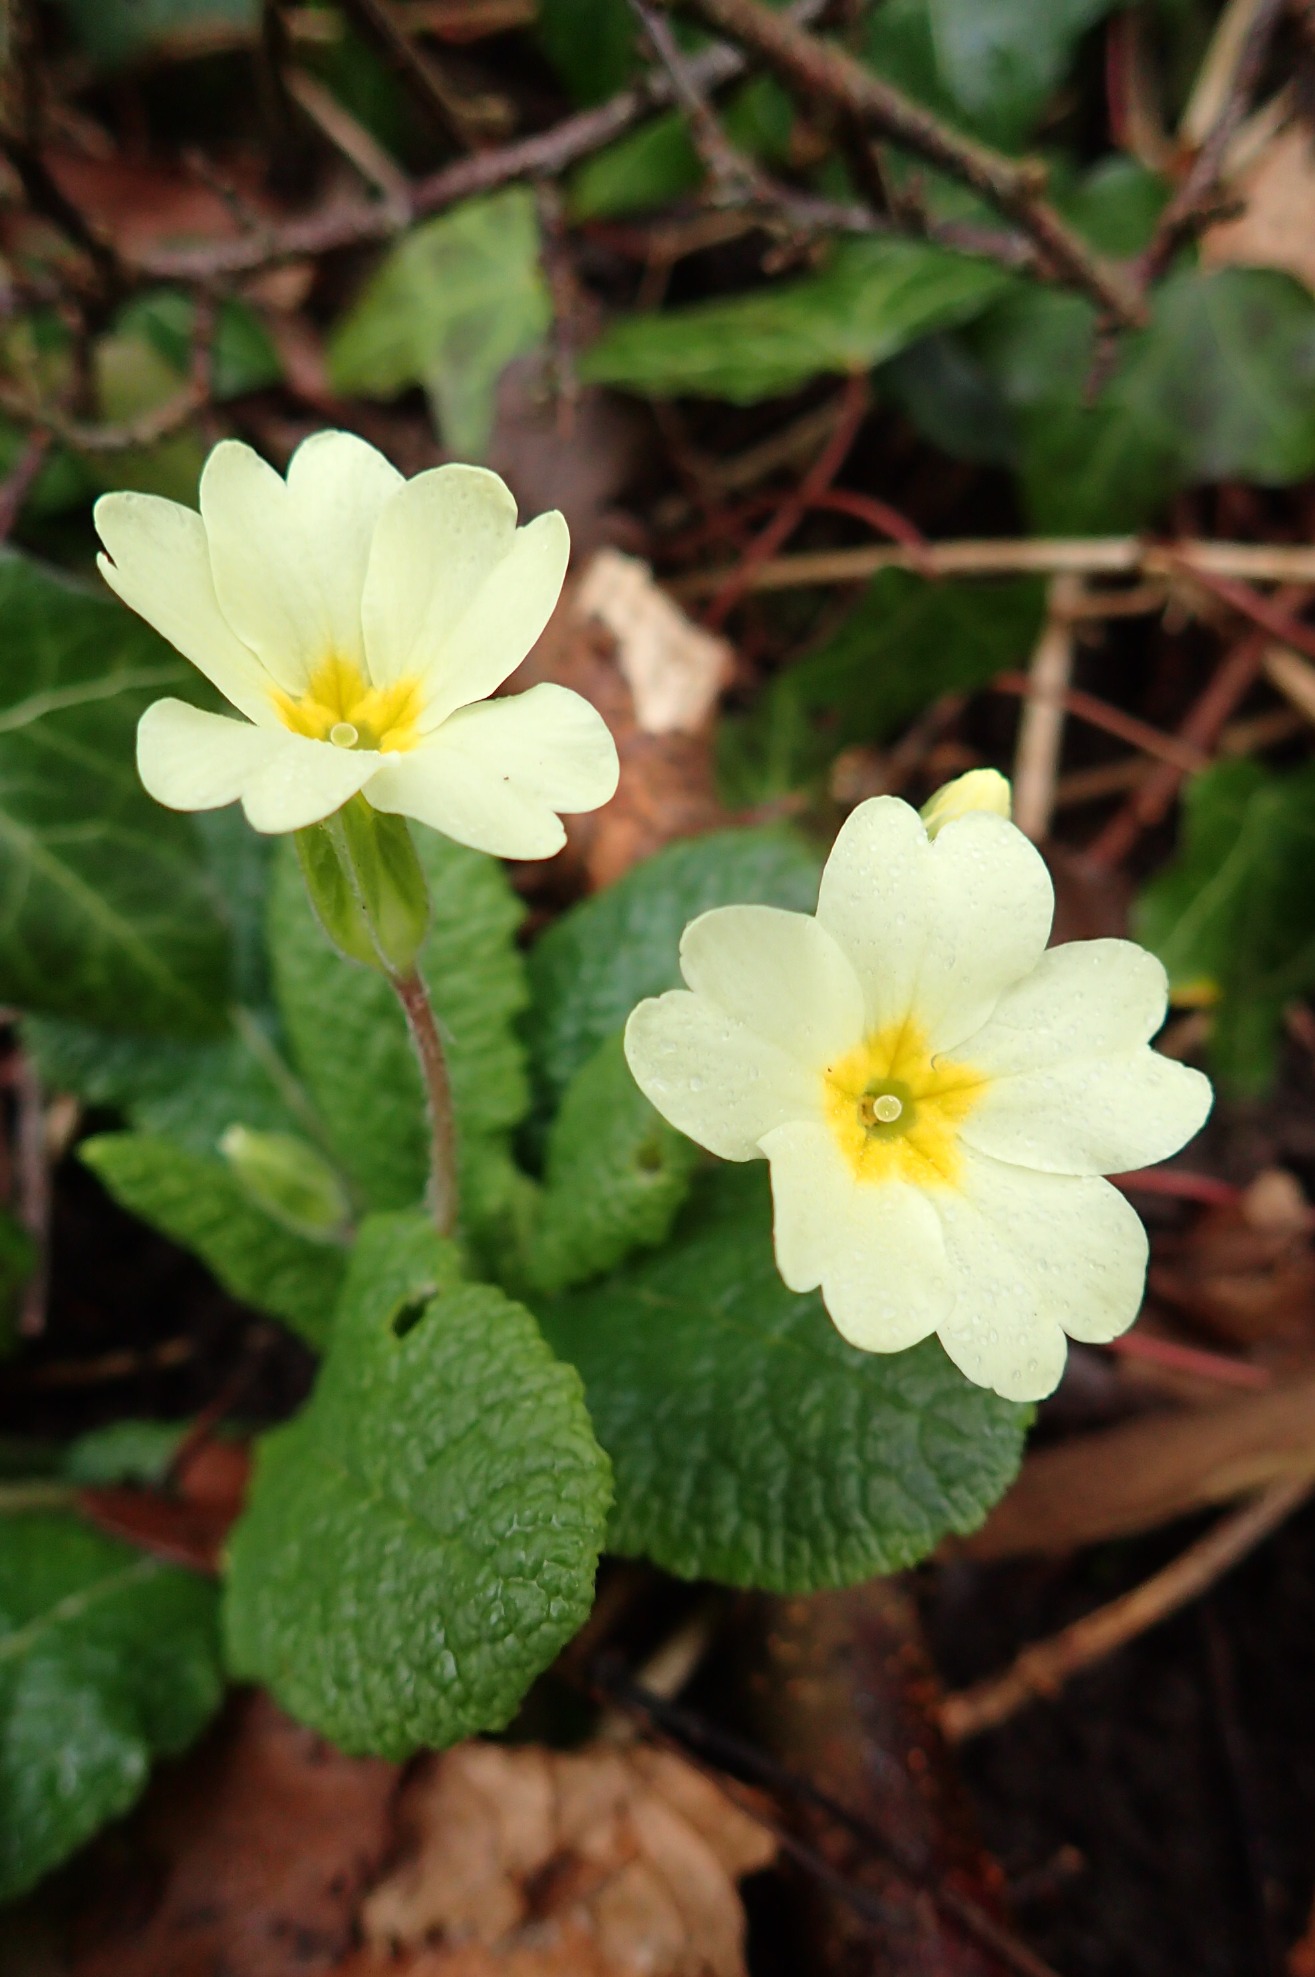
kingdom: Plantae
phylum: Tracheophyta
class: Magnoliopsida
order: Ericales
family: Primulaceae
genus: Primula
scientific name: Primula vulgaris
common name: Storblomstret kodriver
